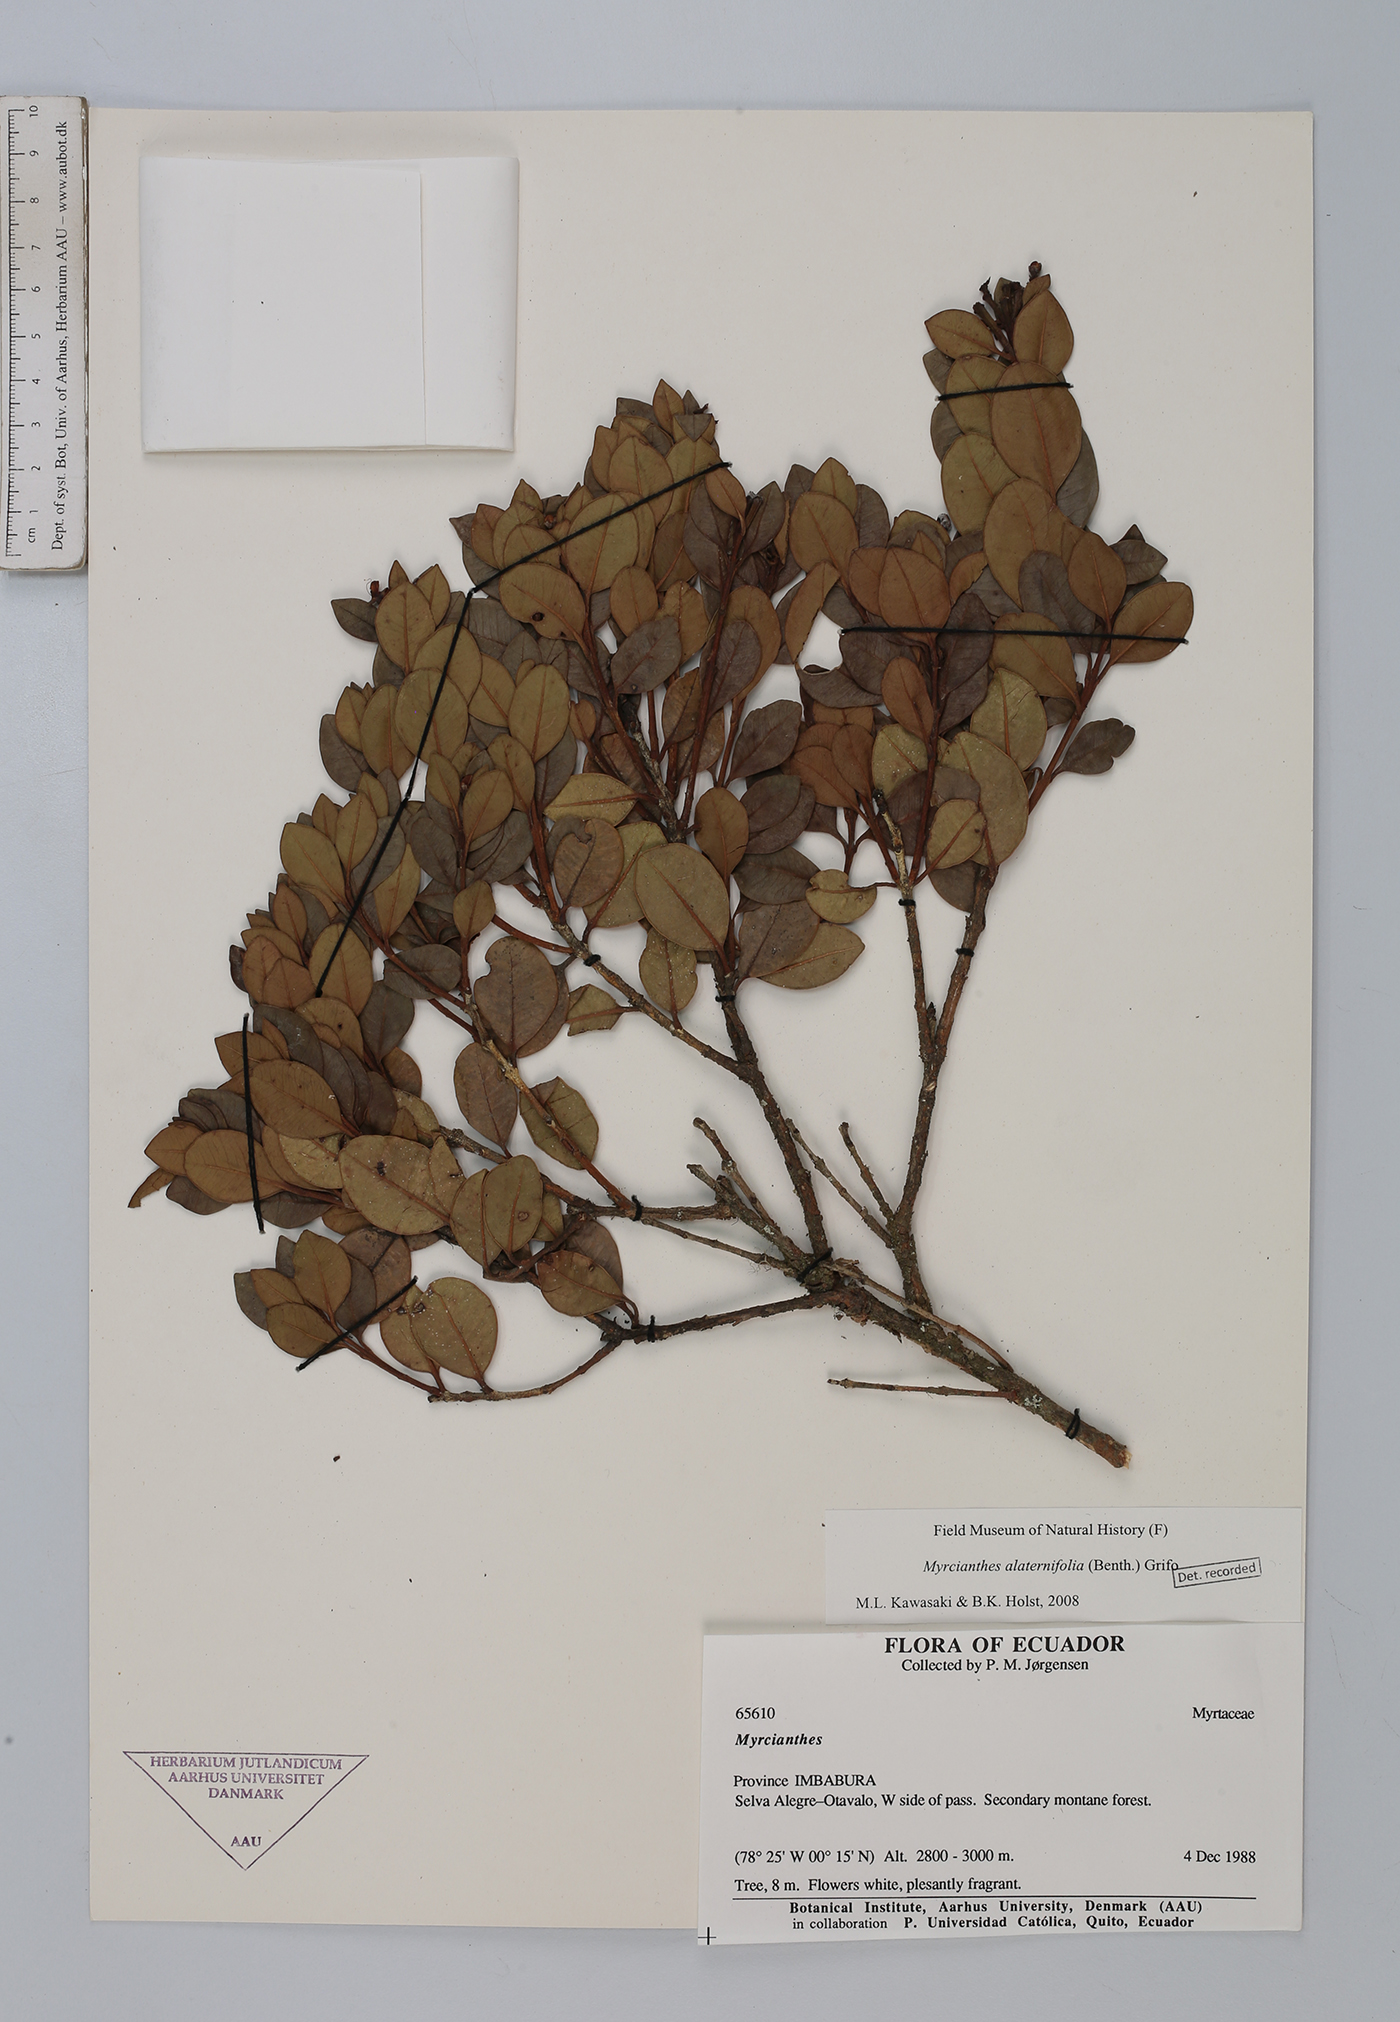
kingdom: Plantae
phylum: Tracheophyta
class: Magnoliopsida
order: Myrtales
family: Myrtaceae
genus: Myrcianthes
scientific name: Myrcianthes alaternifolia
